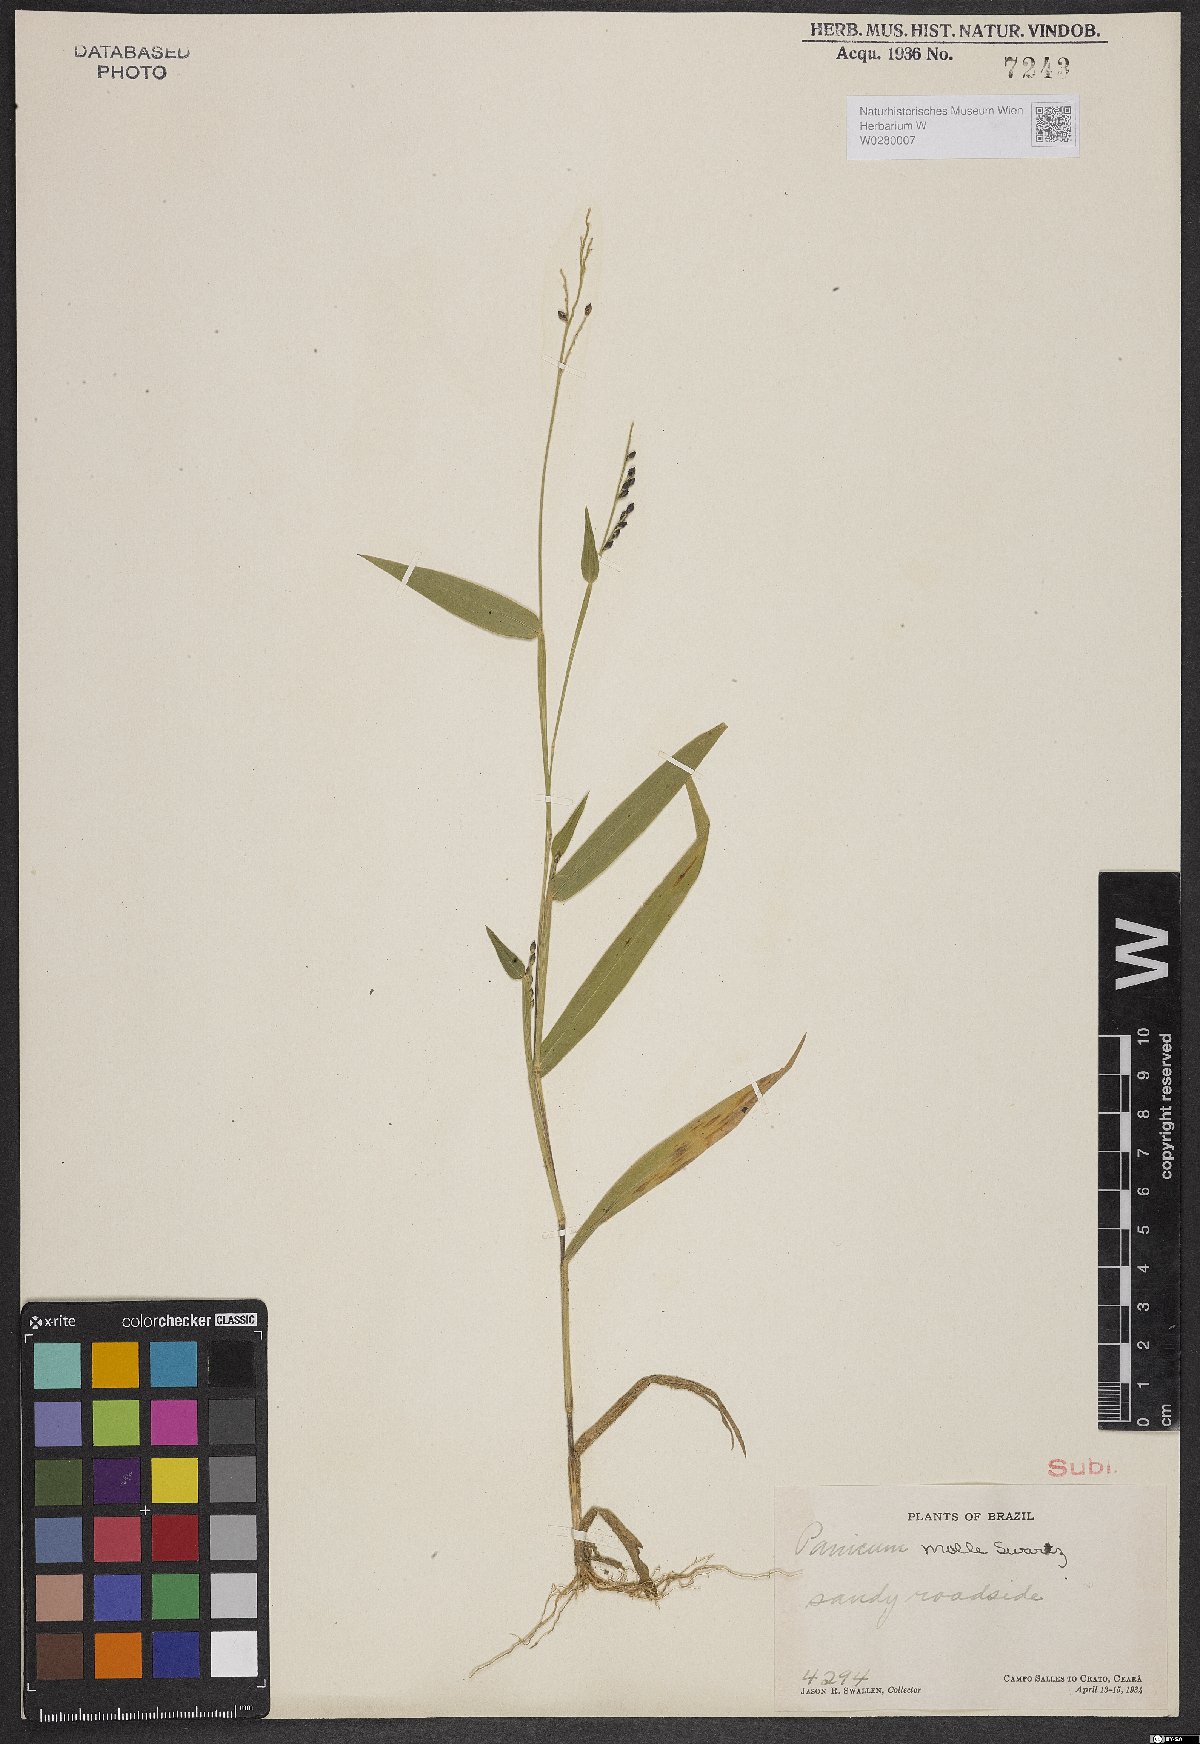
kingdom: Plantae
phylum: Tracheophyta
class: Liliopsida
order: Poales
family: Poaceae
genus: Urochloa
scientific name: Urochloa mollis
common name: Grass
